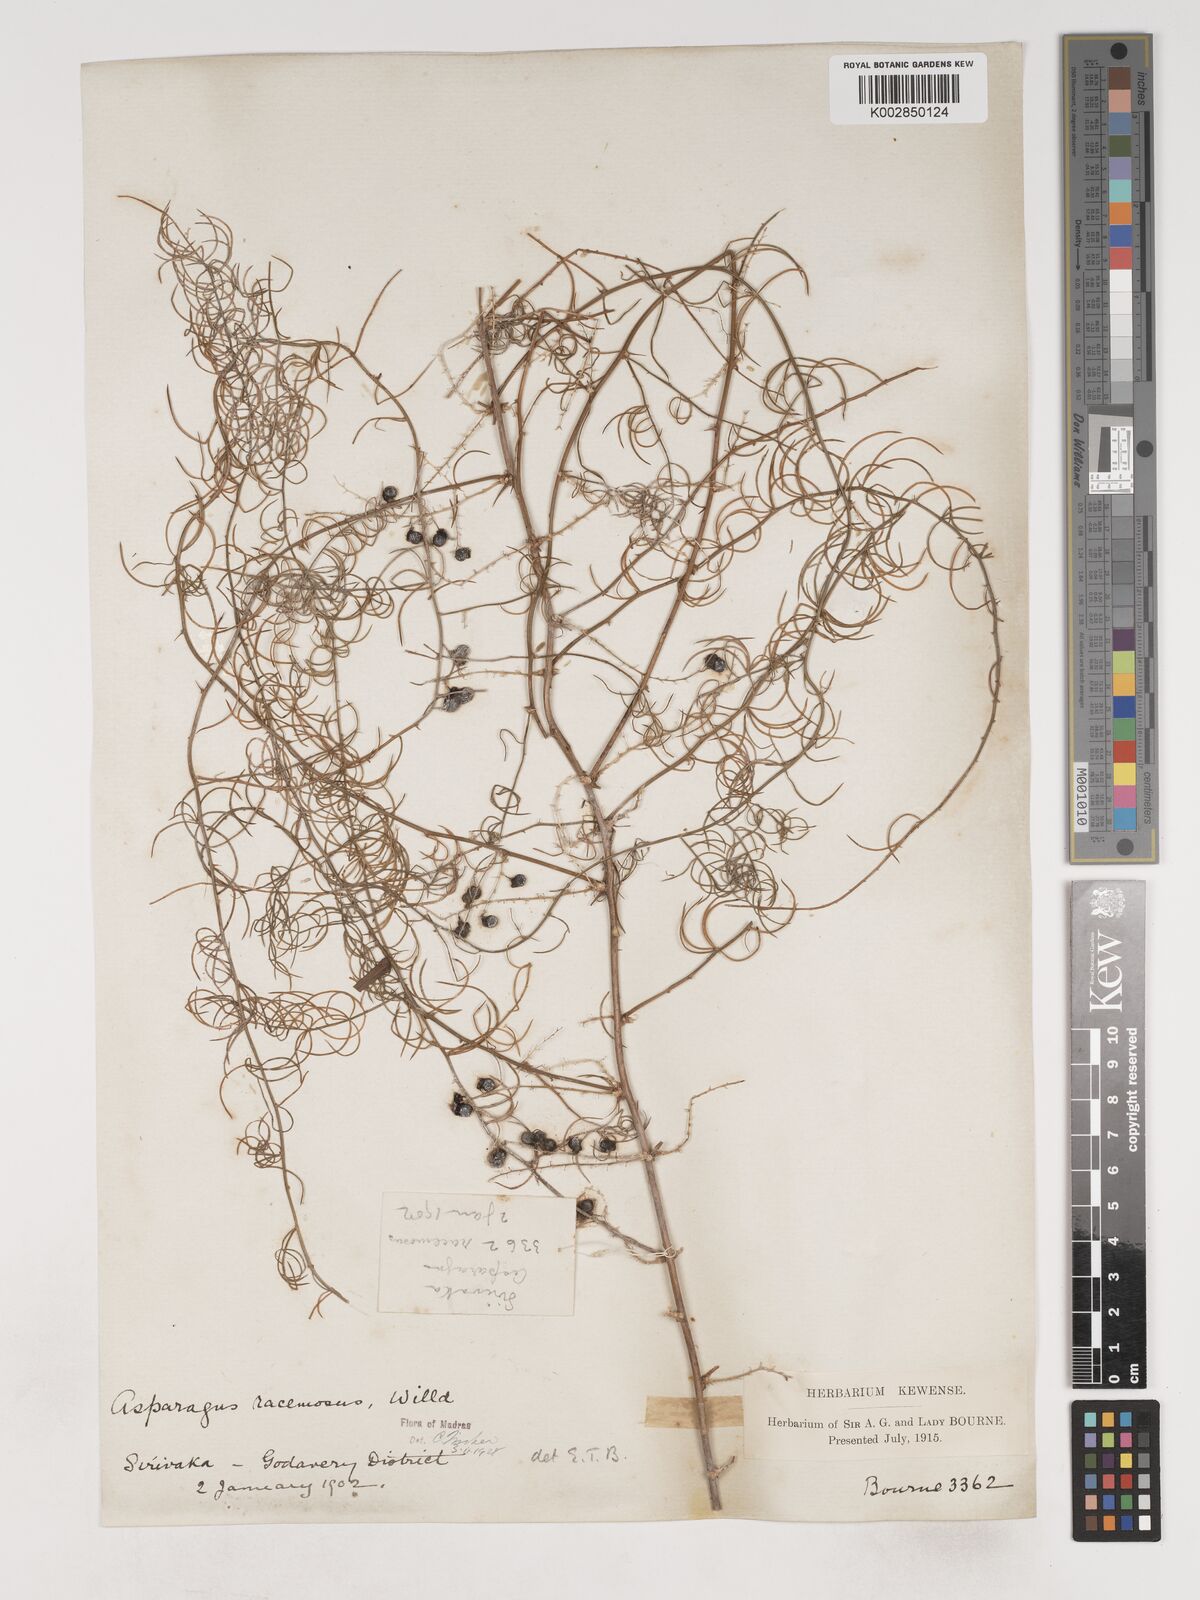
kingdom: Plantae
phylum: Tracheophyta
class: Liliopsida
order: Asparagales
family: Asparagaceae
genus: Asparagus
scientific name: Asparagus racemosus
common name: Asparagus-fern
